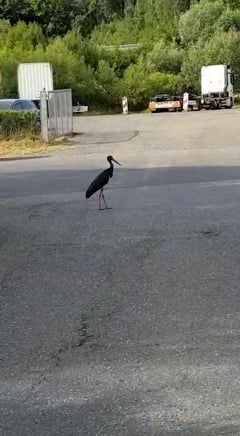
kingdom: Animalia
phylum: Chordata
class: Aves
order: Ciconiiformes
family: Ciconiidae
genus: Ciconia
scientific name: Ciconia nigra
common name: Black stork
